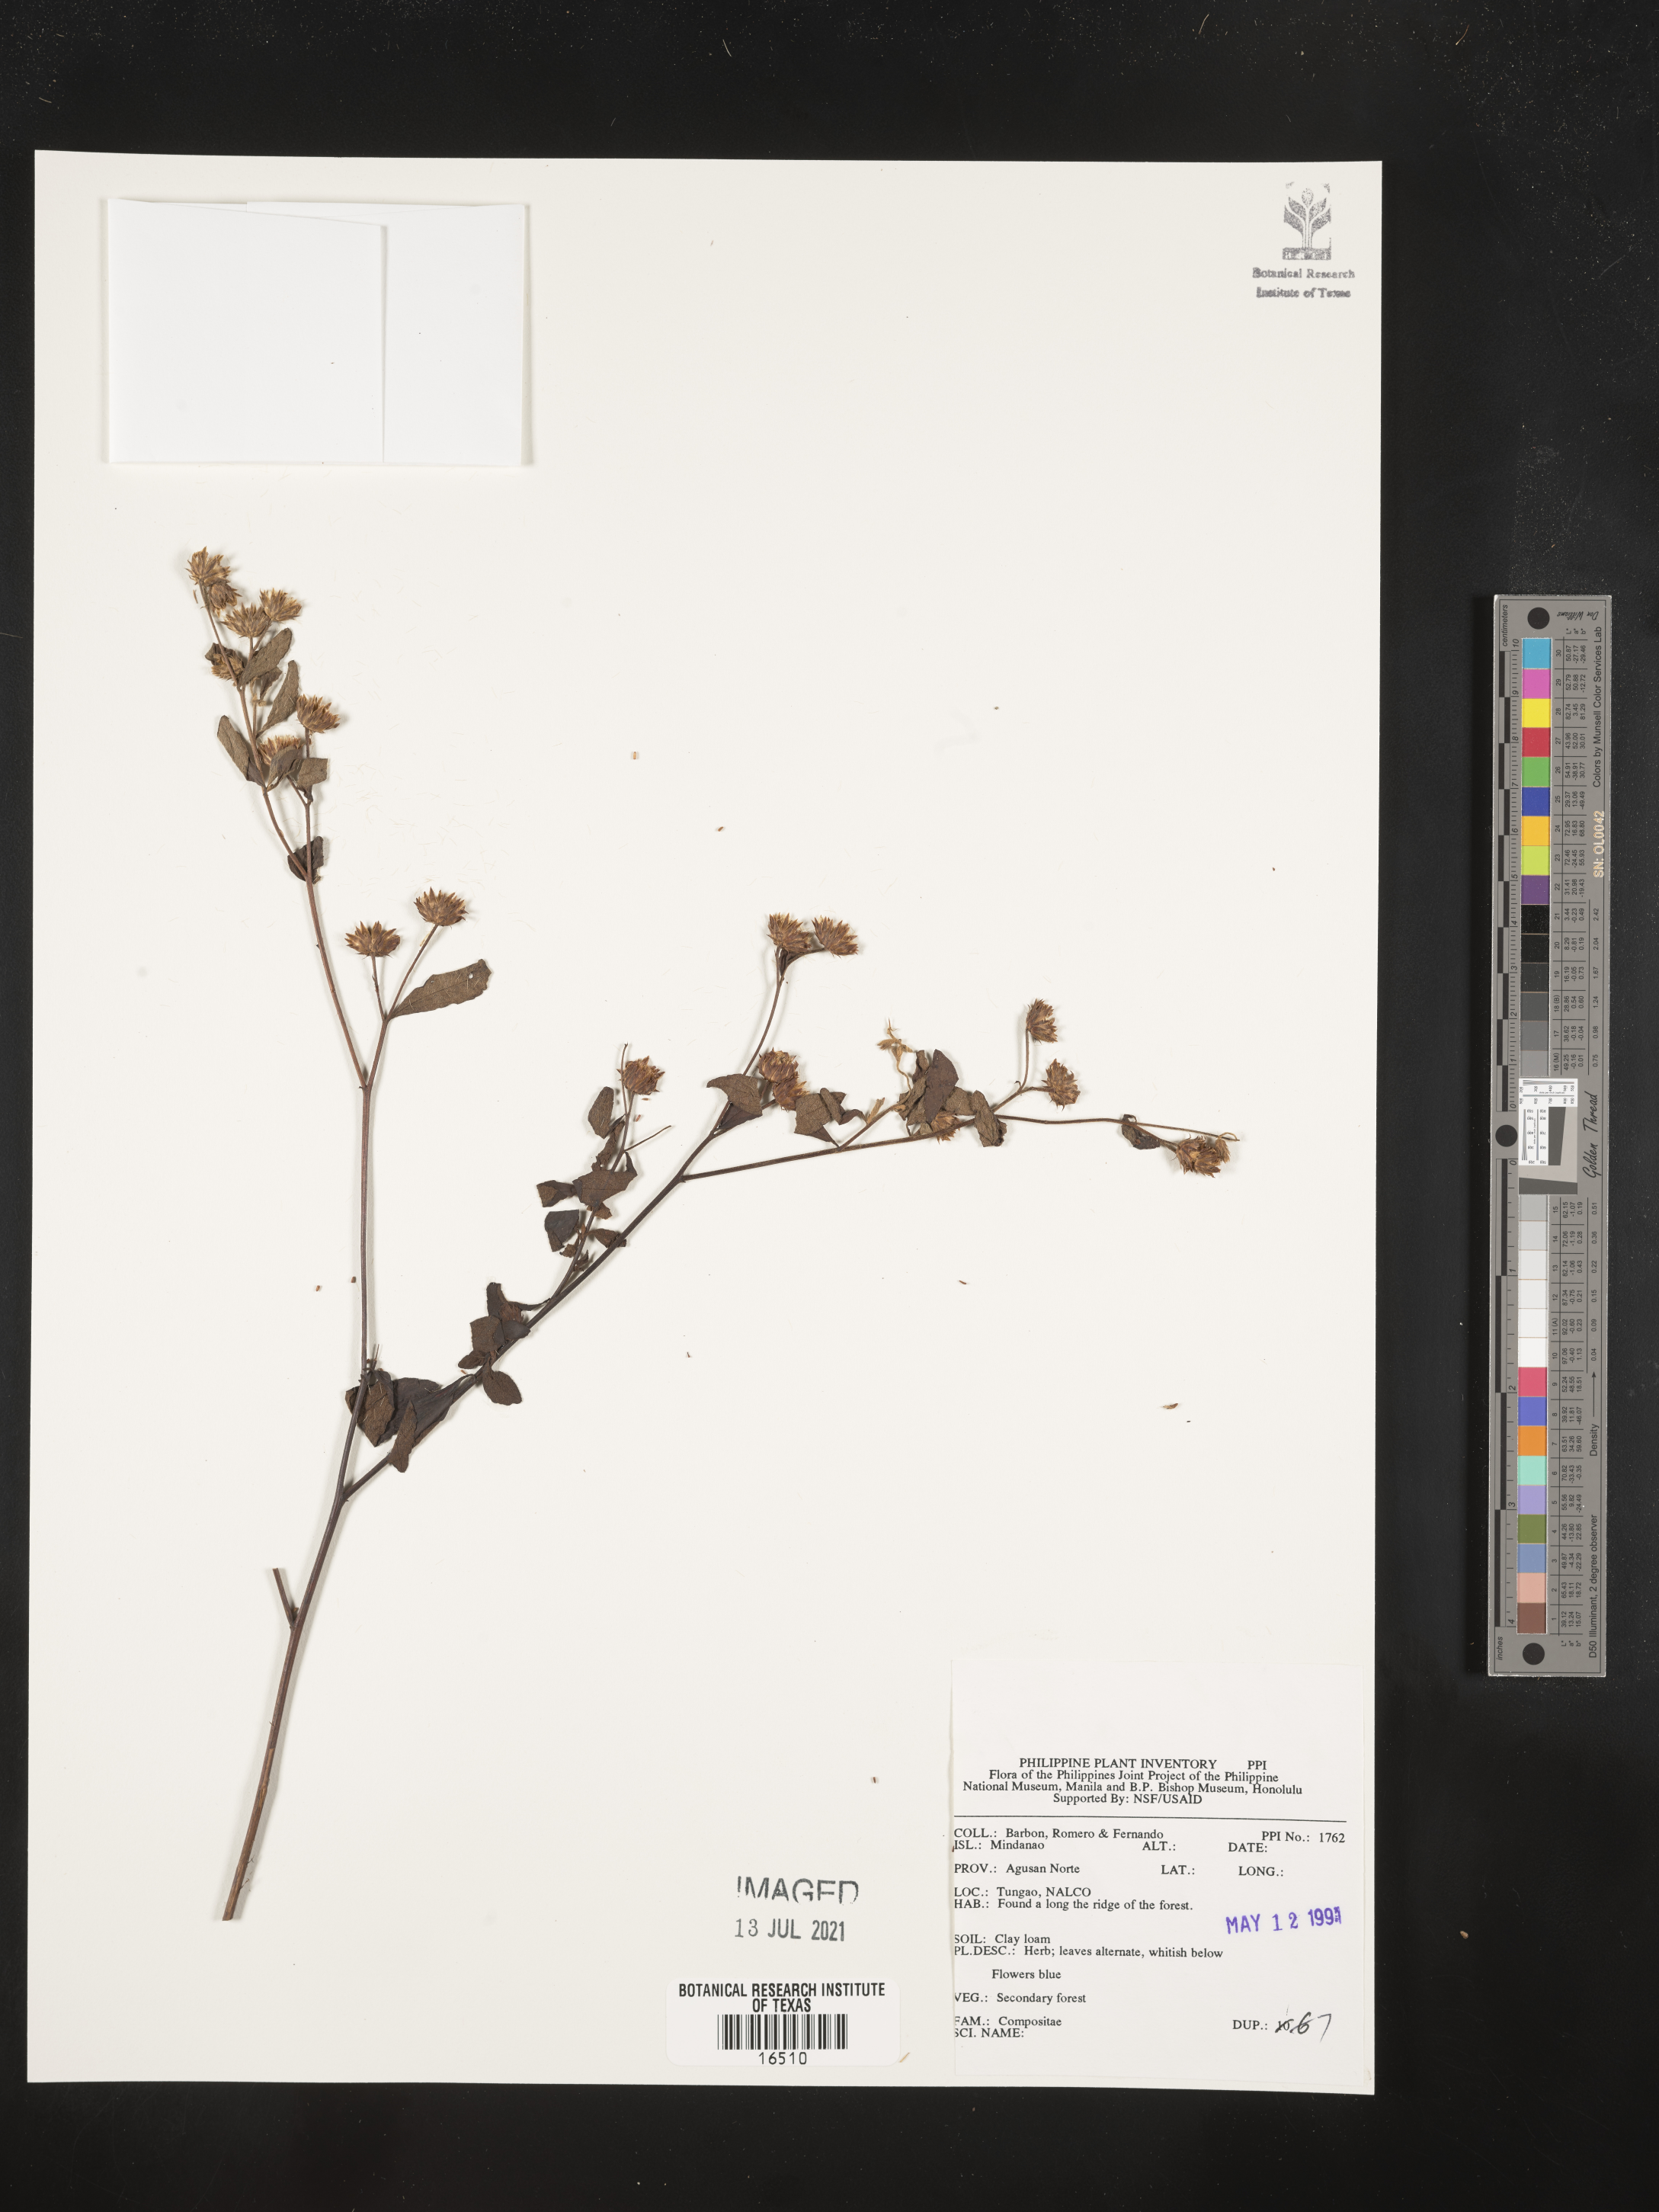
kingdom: Plantae
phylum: Tracheophyta
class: Magnoliopsida
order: Asterales
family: Asteraceae
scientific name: Asteraceae
